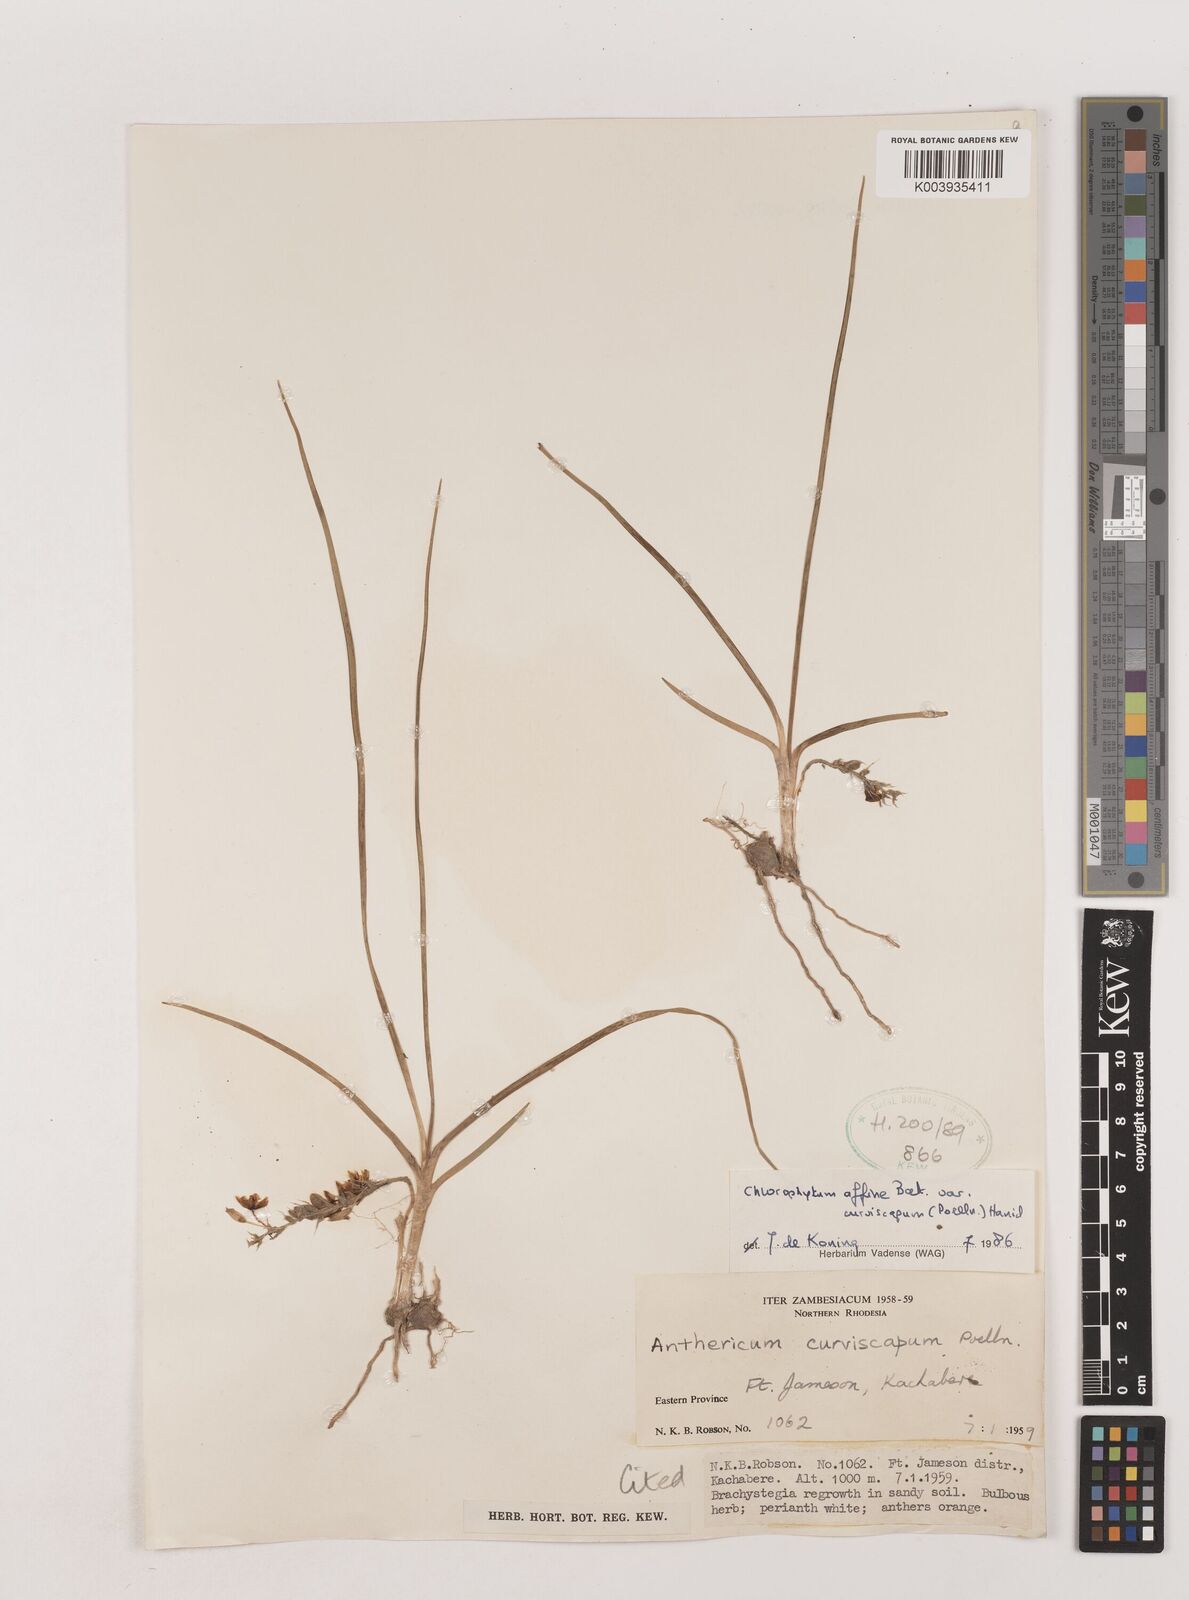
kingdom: Plantae
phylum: Tracheophyta
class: Liliopsida
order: Asparagales
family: Asparagaceae
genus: Chlorophytum
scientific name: Chlorophytum tordense
